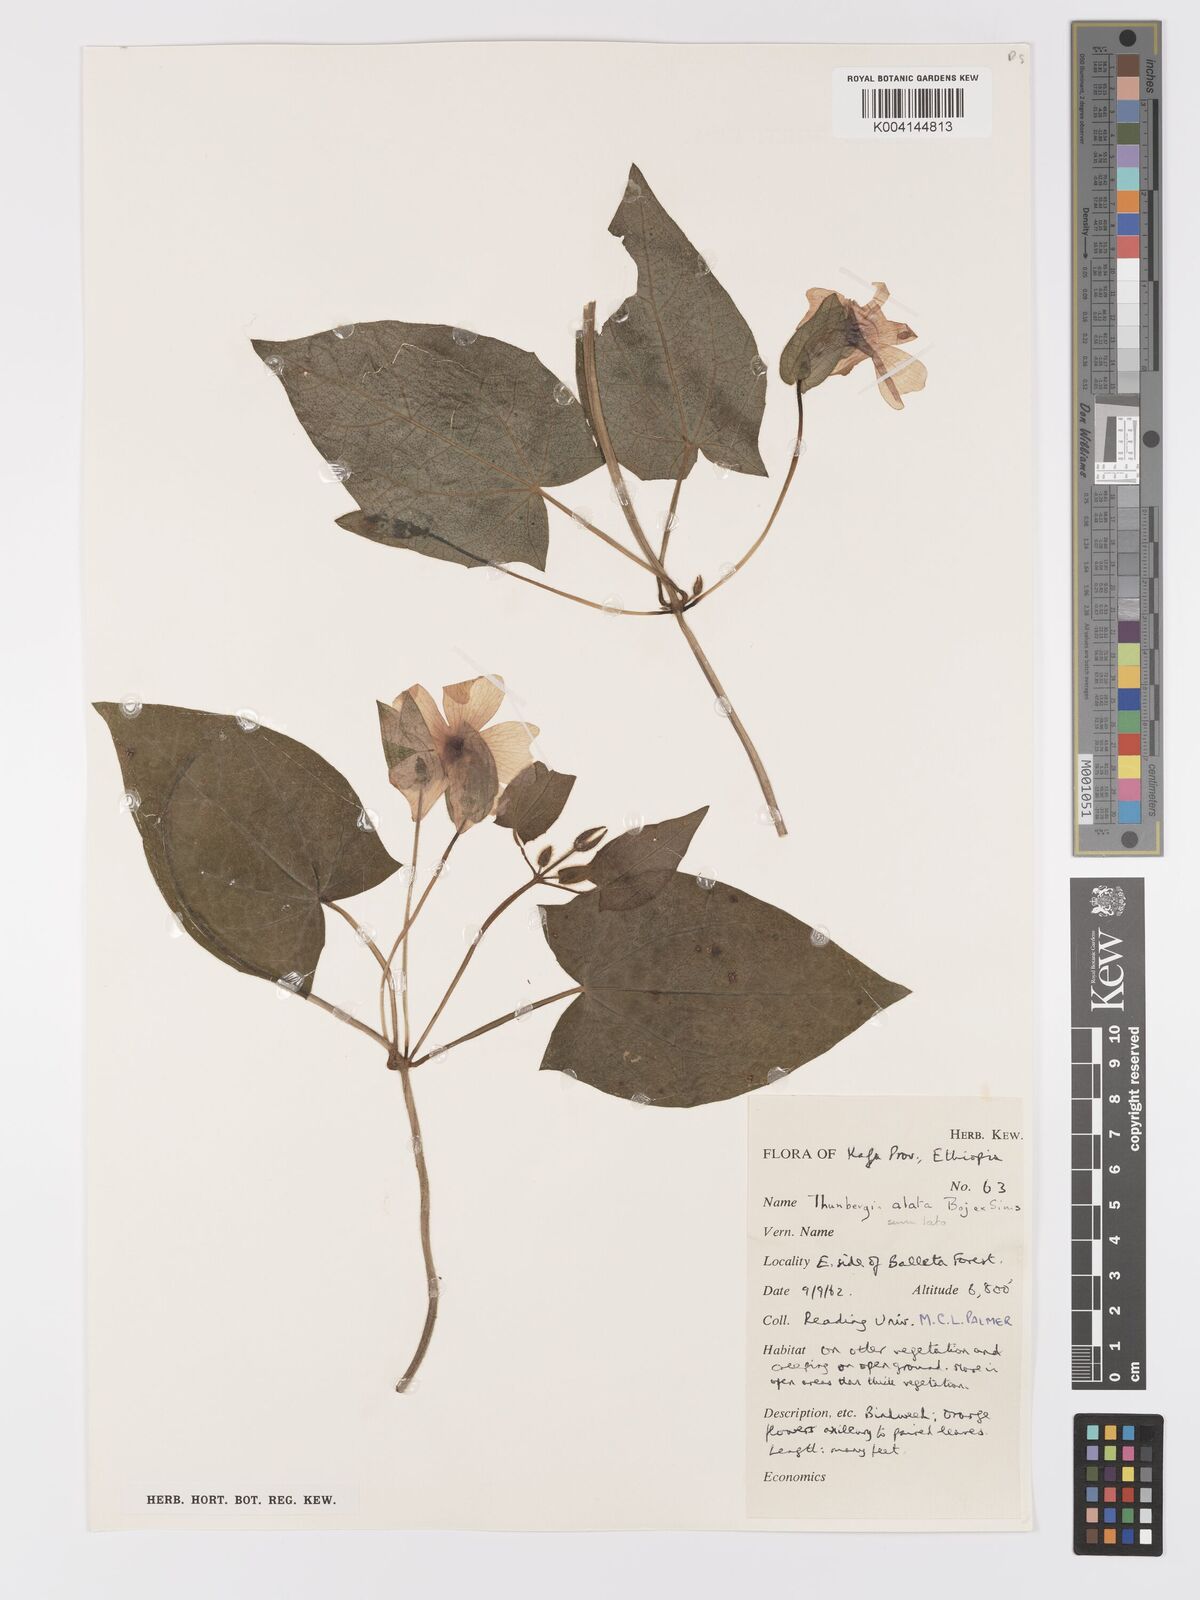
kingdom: Plantae
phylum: Tracheophyta
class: Magnoliopsida
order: Lamiales
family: Acanthaceae
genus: Thunbergia
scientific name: Thunbergia alata
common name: Blackeyed susan vine
